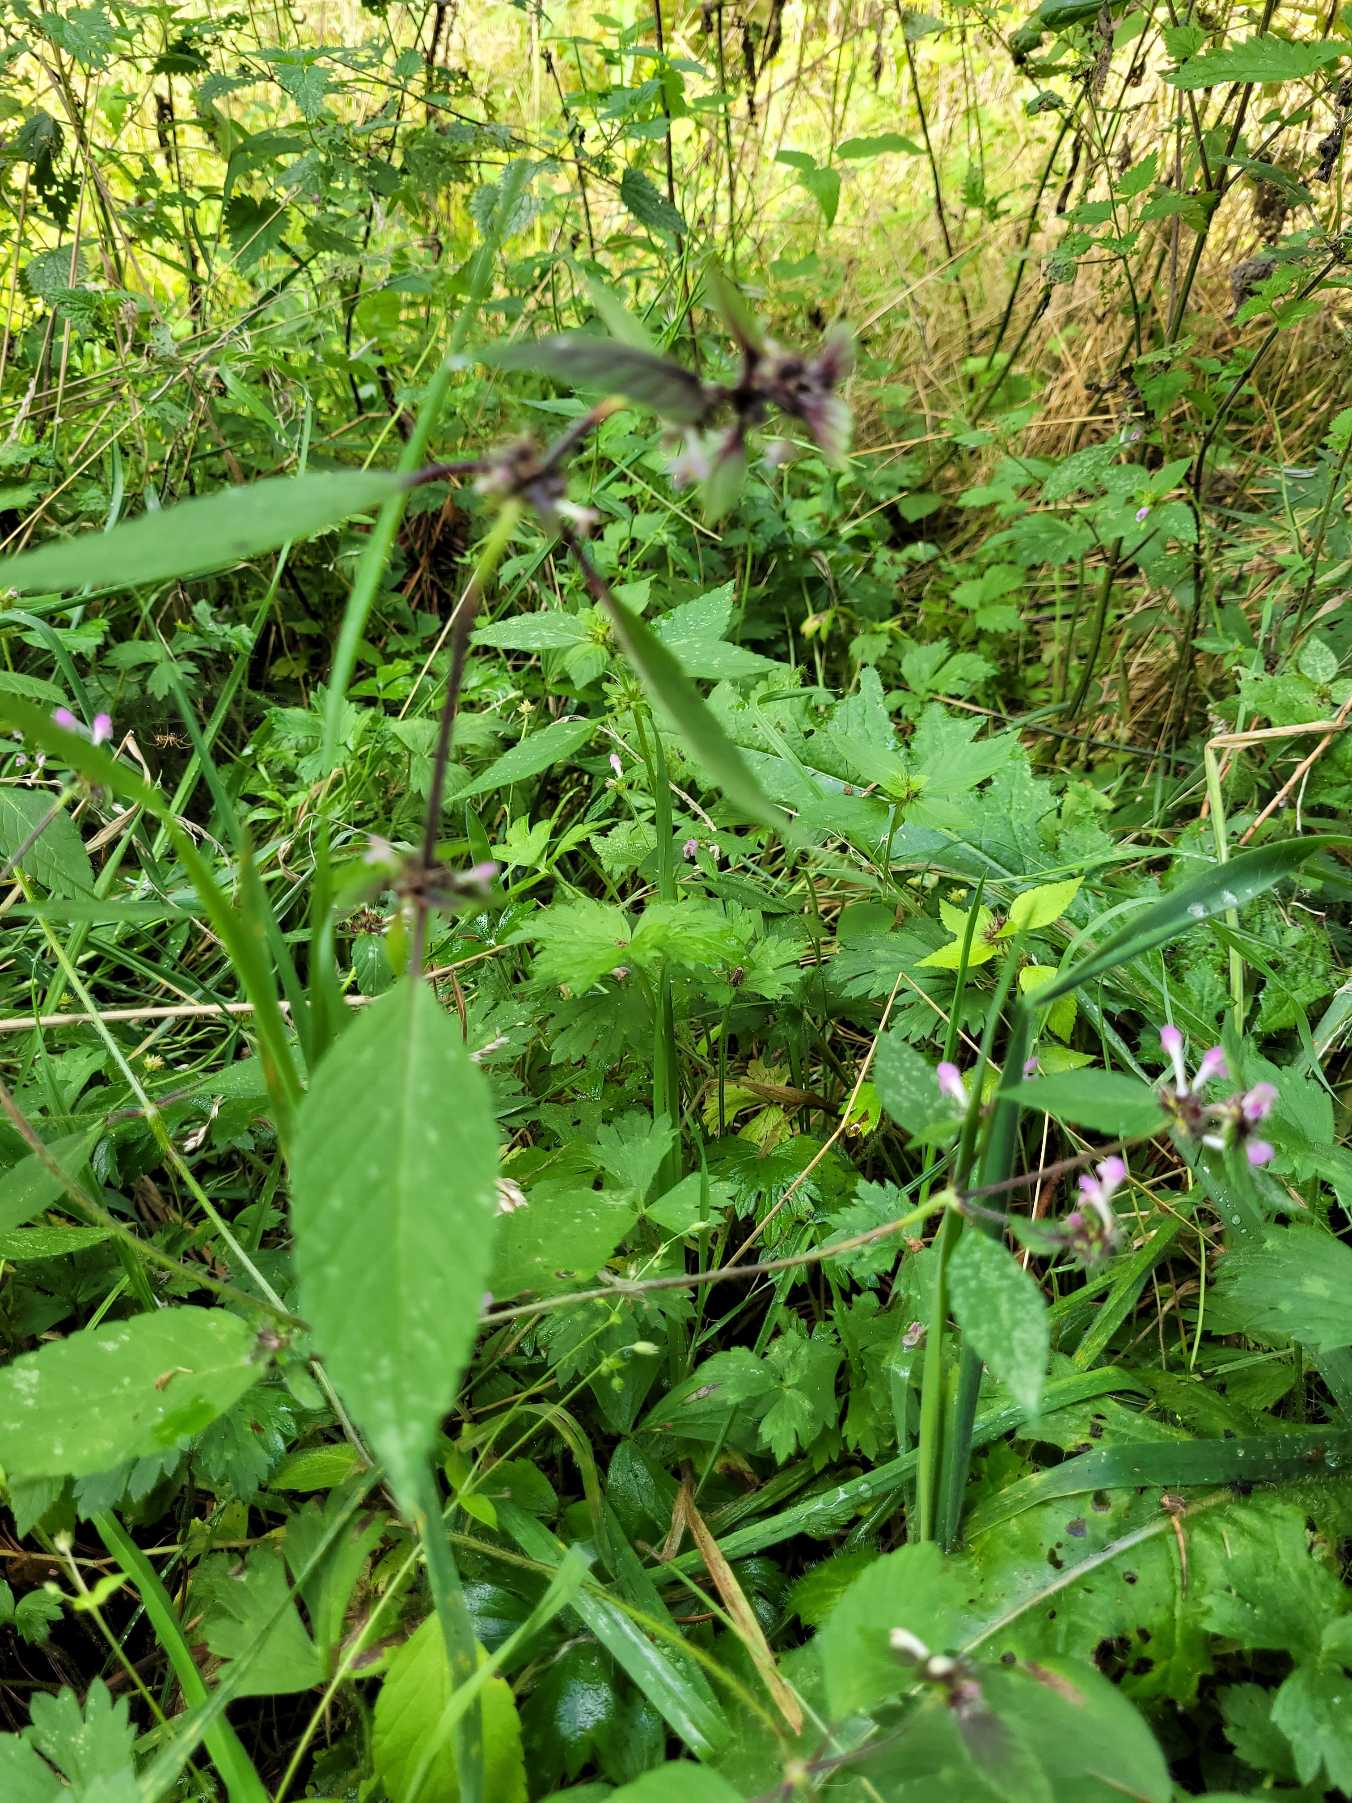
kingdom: Plantae
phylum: Tracheophyta
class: Magnoliopsida
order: Lamiales
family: Lamiaceae
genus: Galeopsis
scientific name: Galeopsis bifida
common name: Skov-hanekro
